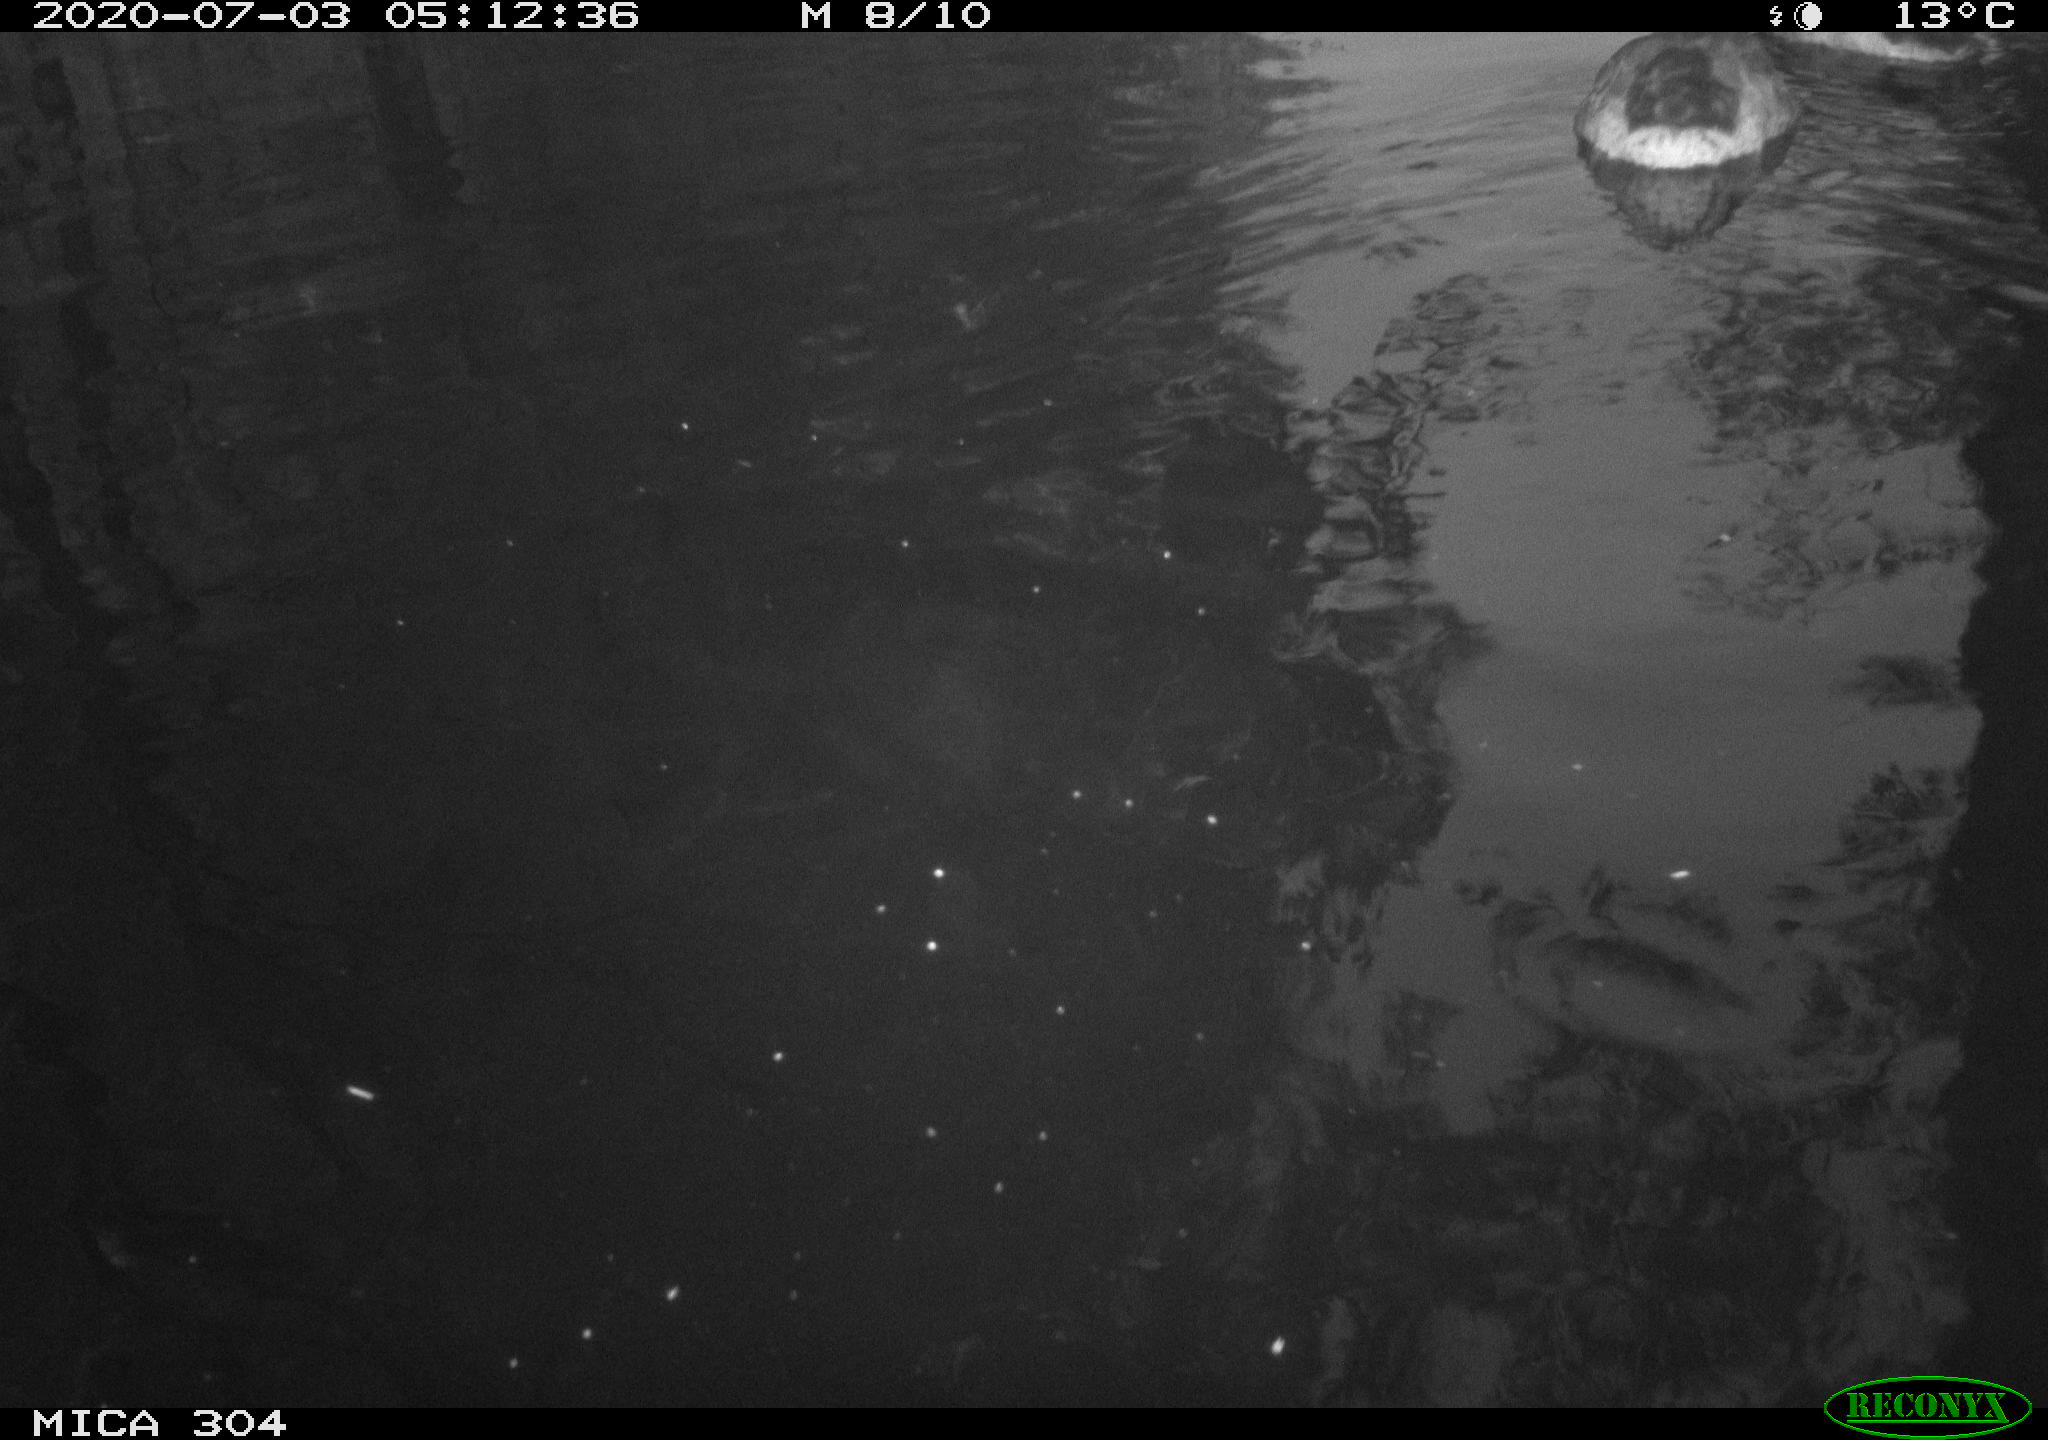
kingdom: Animalia
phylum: Chordata
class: Aves
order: Anseriformes
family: Anatidae
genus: Anas
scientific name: Anas platyrhynchos
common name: Mallard
